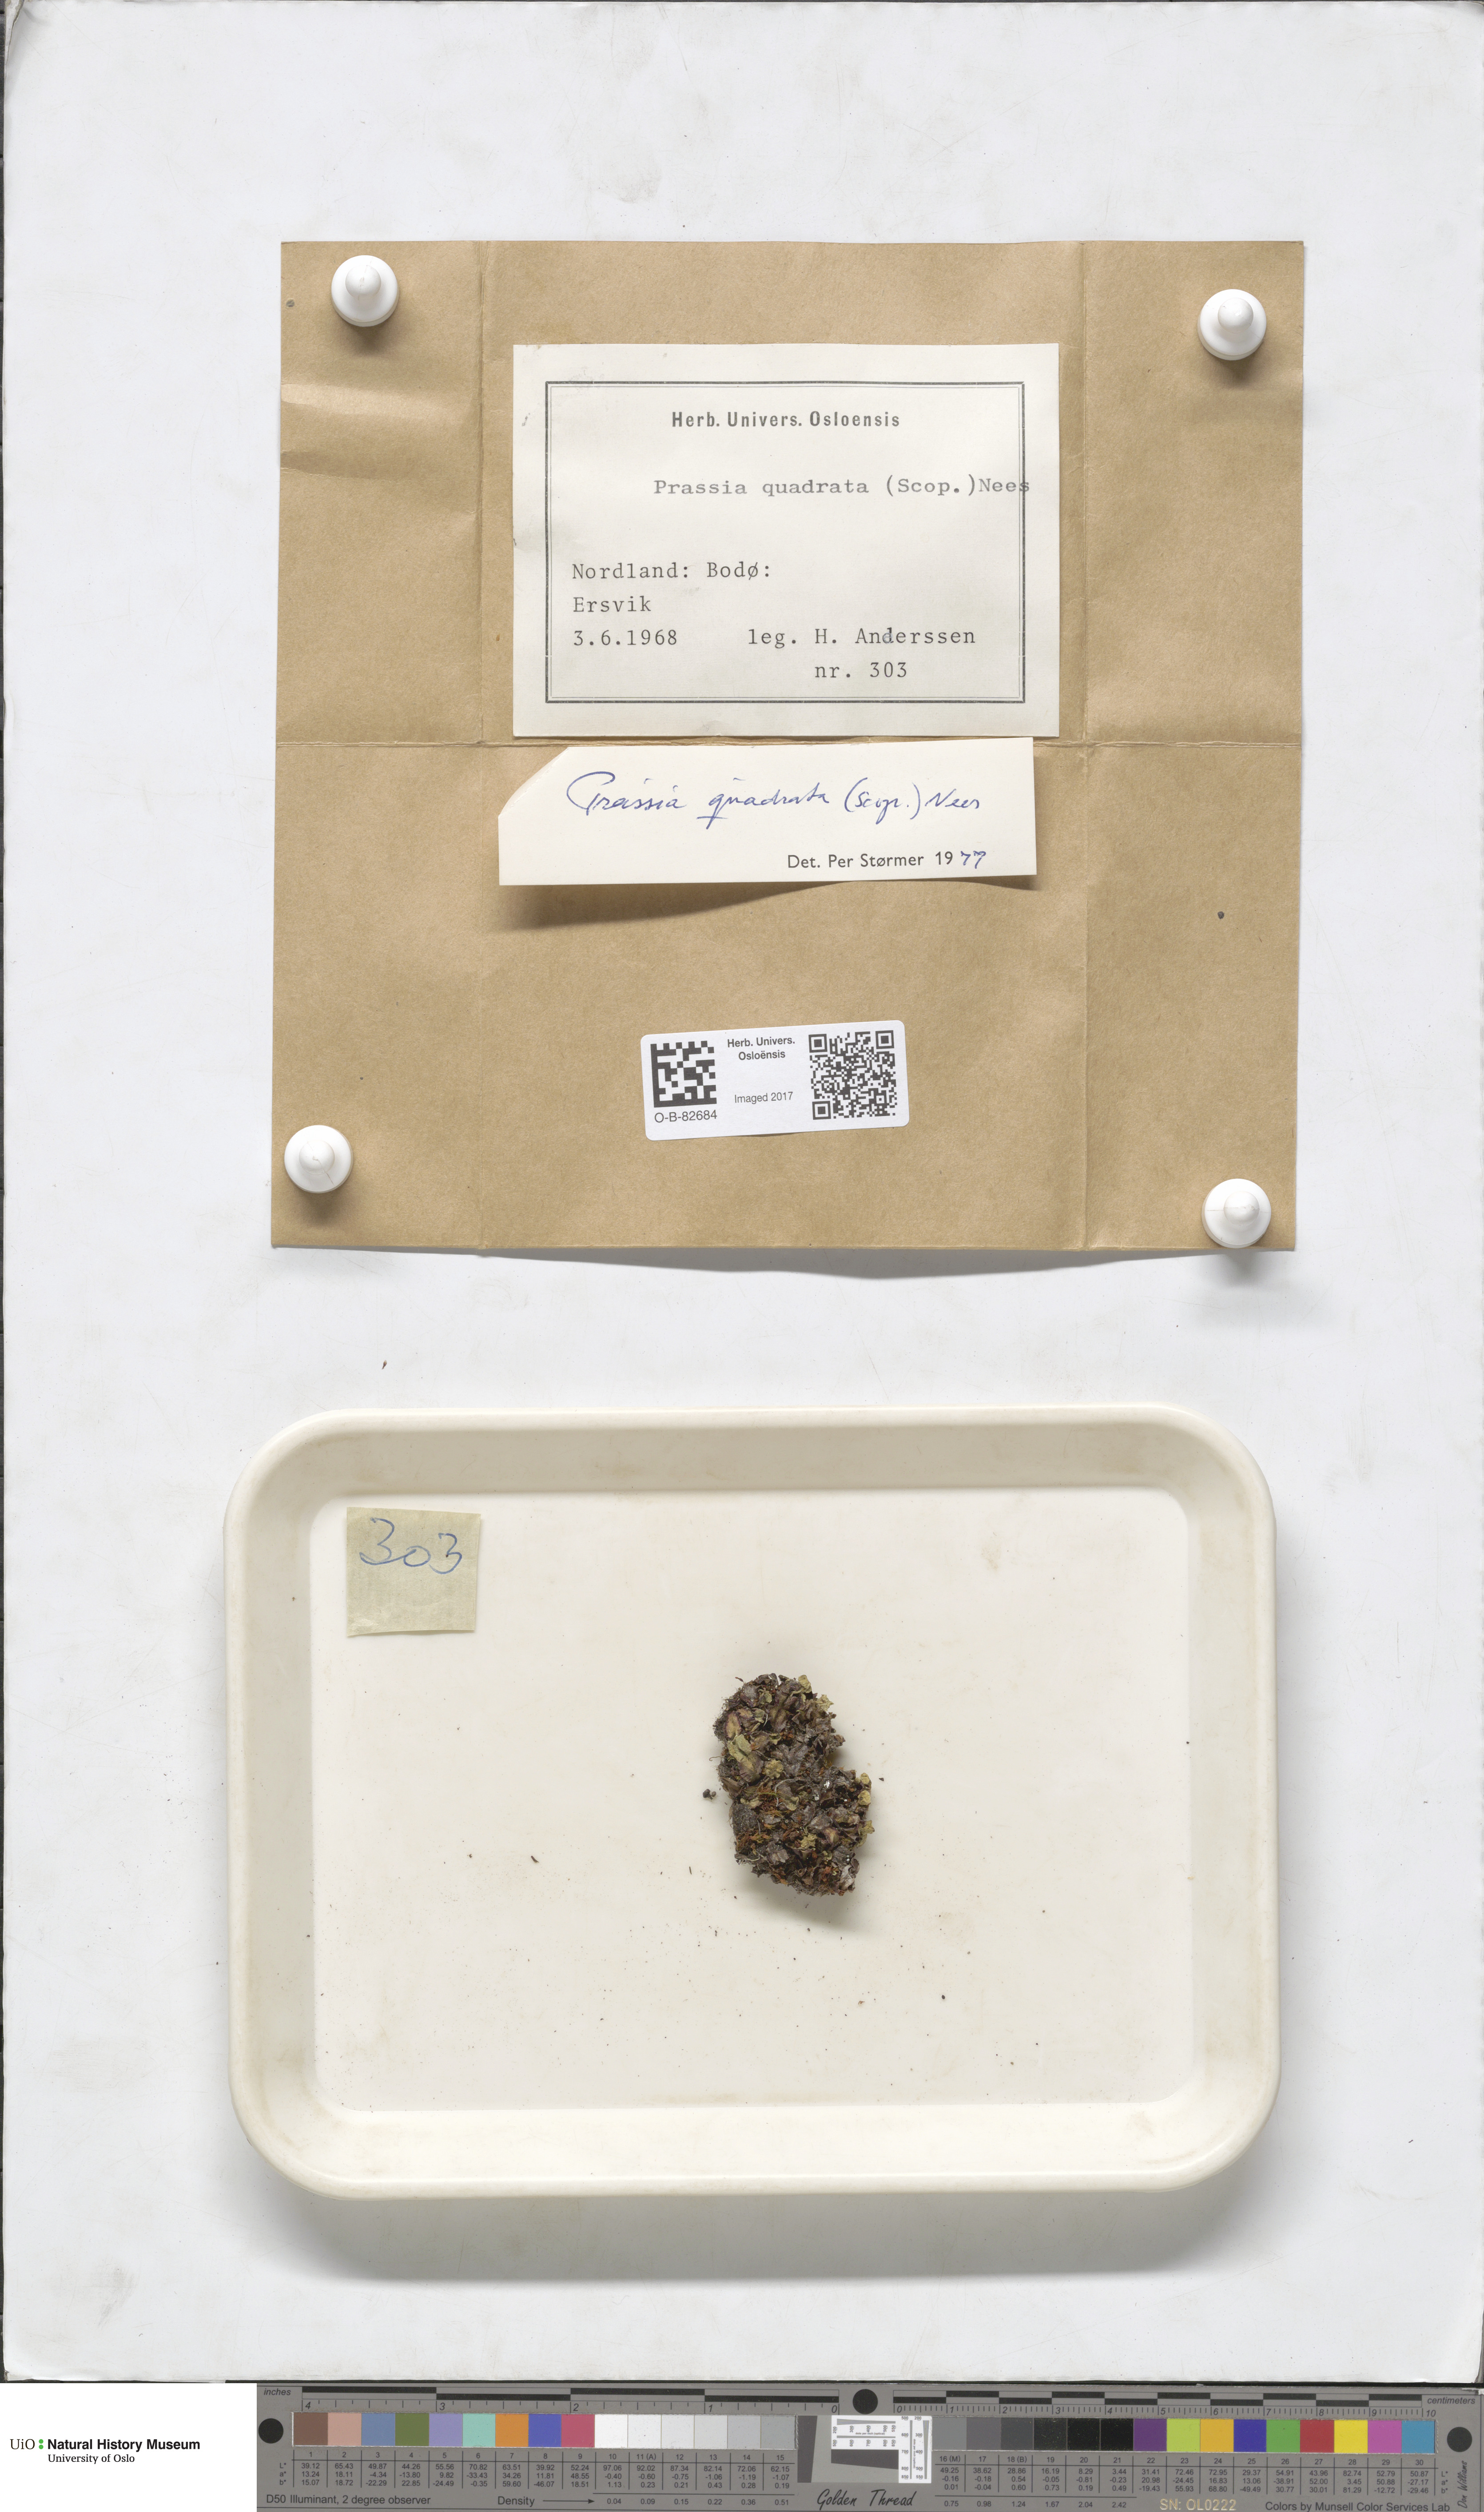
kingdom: Plantae
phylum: Marchantiophyta
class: Marchantiopsida
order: Marchantiales
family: Marchantiaceae
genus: Marchantia
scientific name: Marchantia quadrata
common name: Narrow mushroom-headed liverwort
